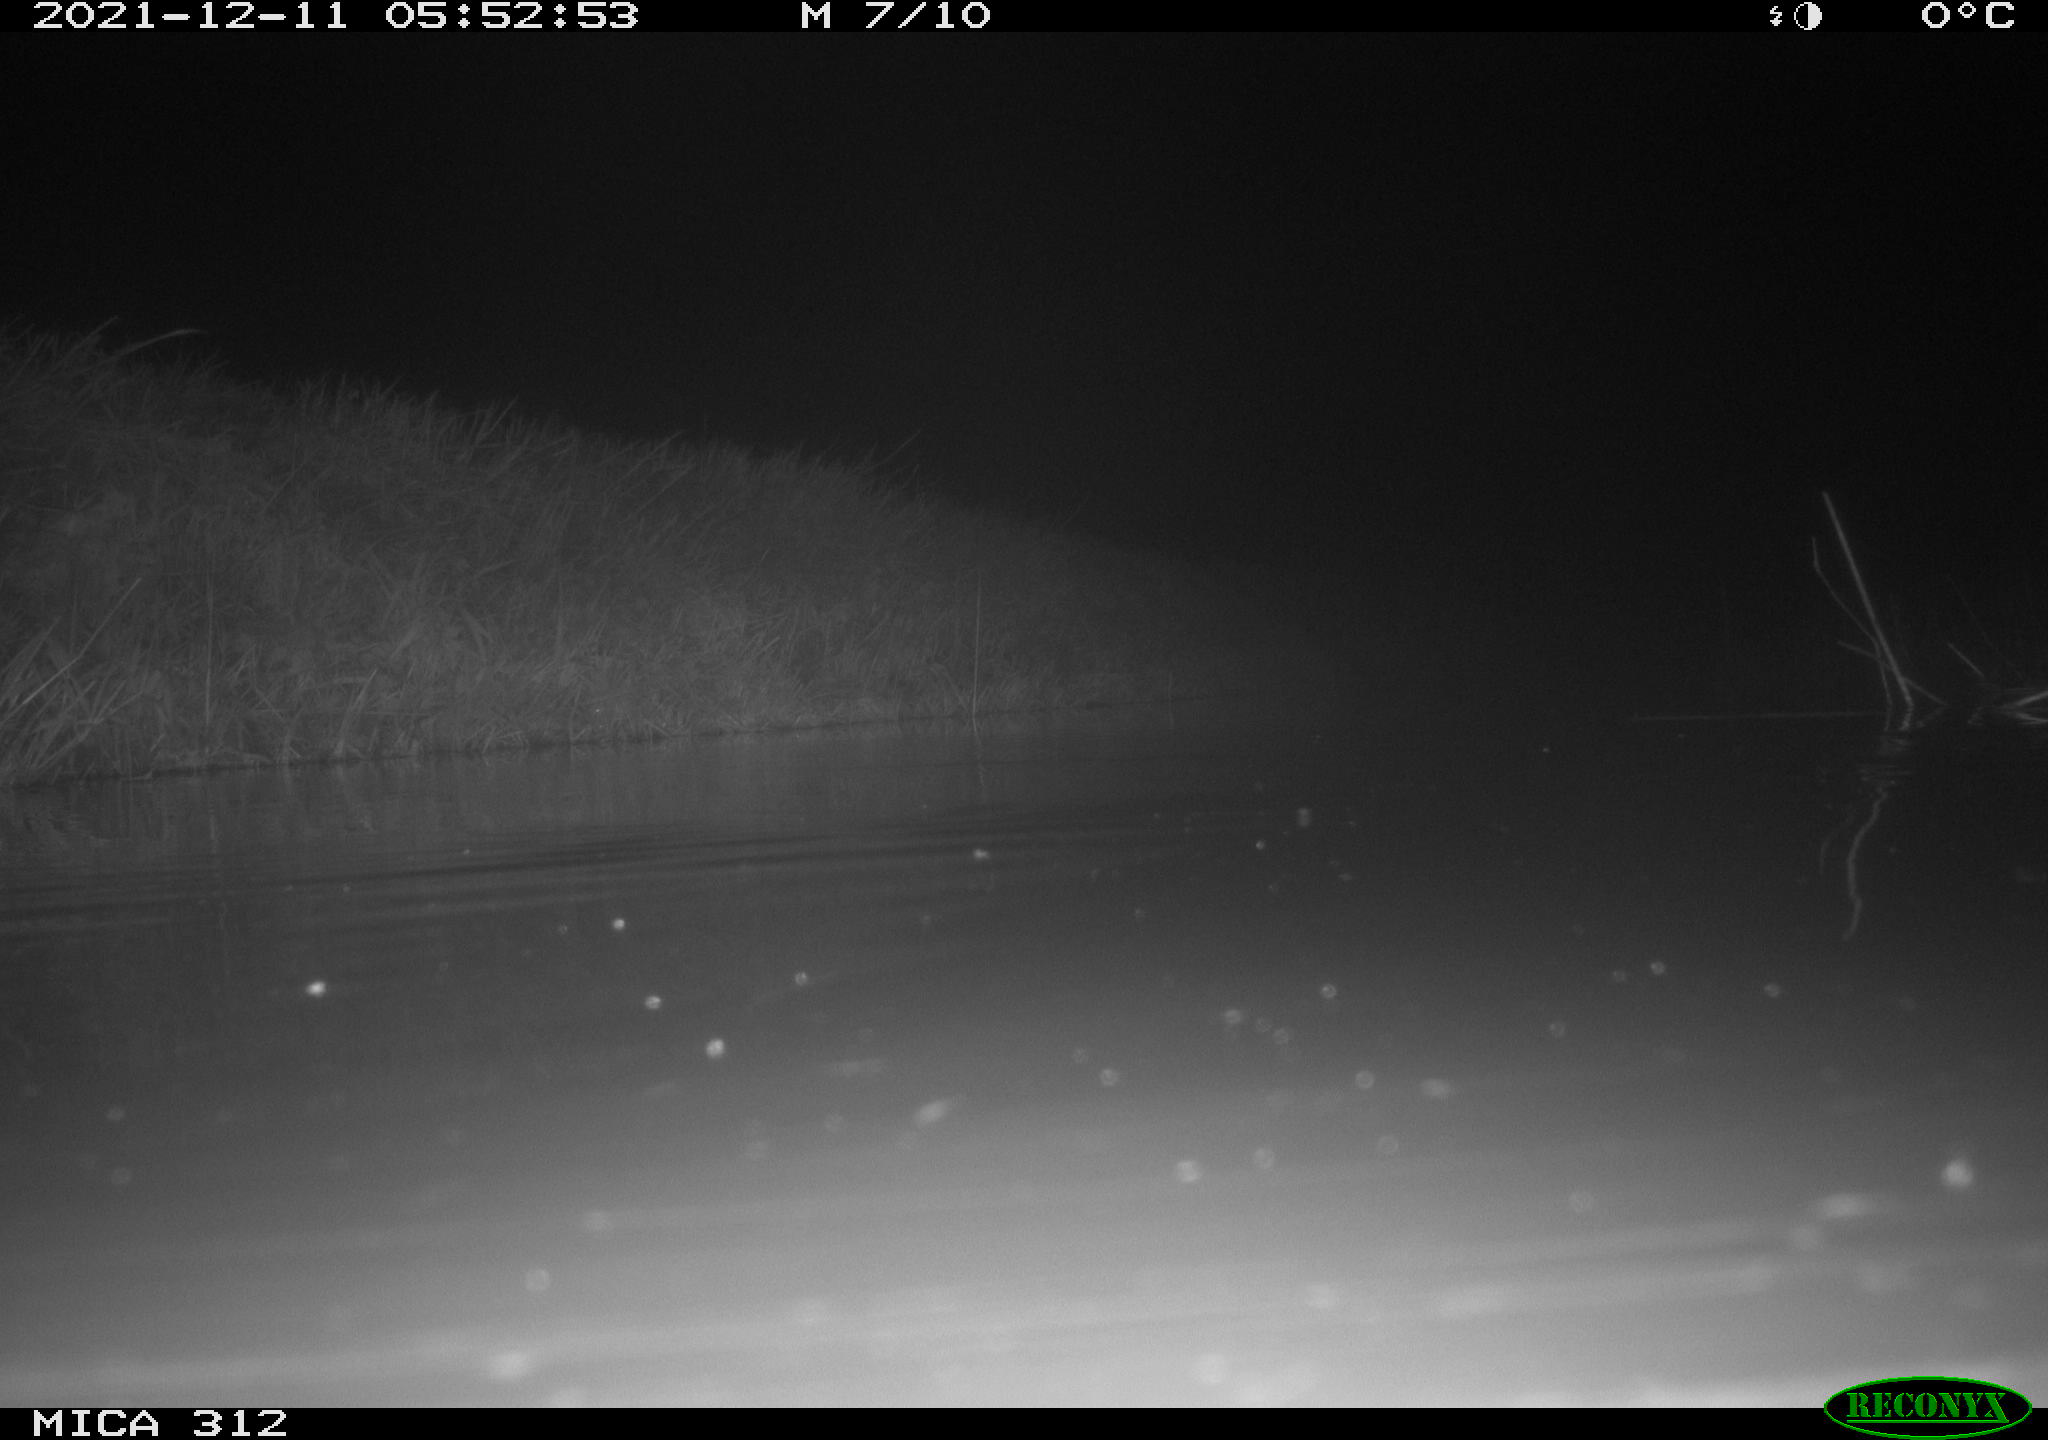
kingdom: Animalia
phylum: Chordata
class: Mammalia
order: Rodentia
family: Muridae
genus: Rattus
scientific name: Rattus norvegicus
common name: Brown rat
